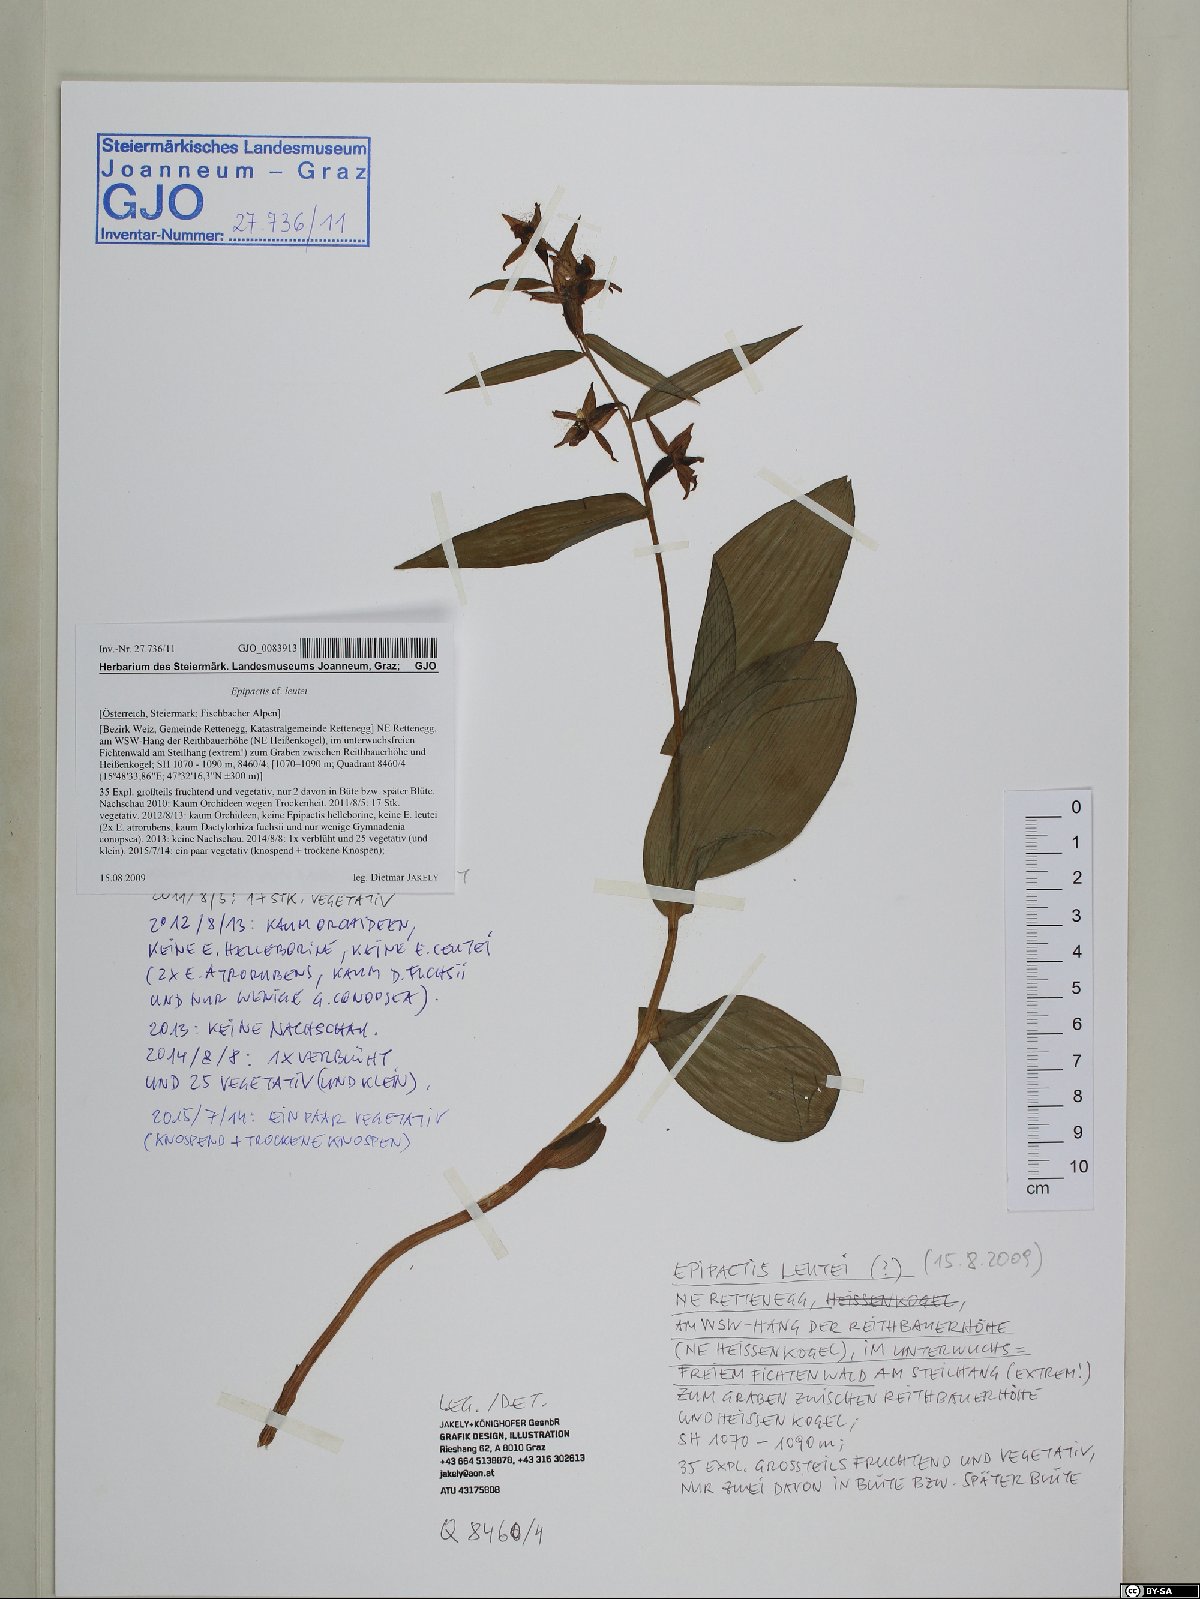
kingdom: Plantae
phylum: Tracheophyta
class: Liliopsida
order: Asparagales
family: Orchidaceae
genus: Epipactis
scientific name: Epipactis helleborine
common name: Broad-leaved helleborine
